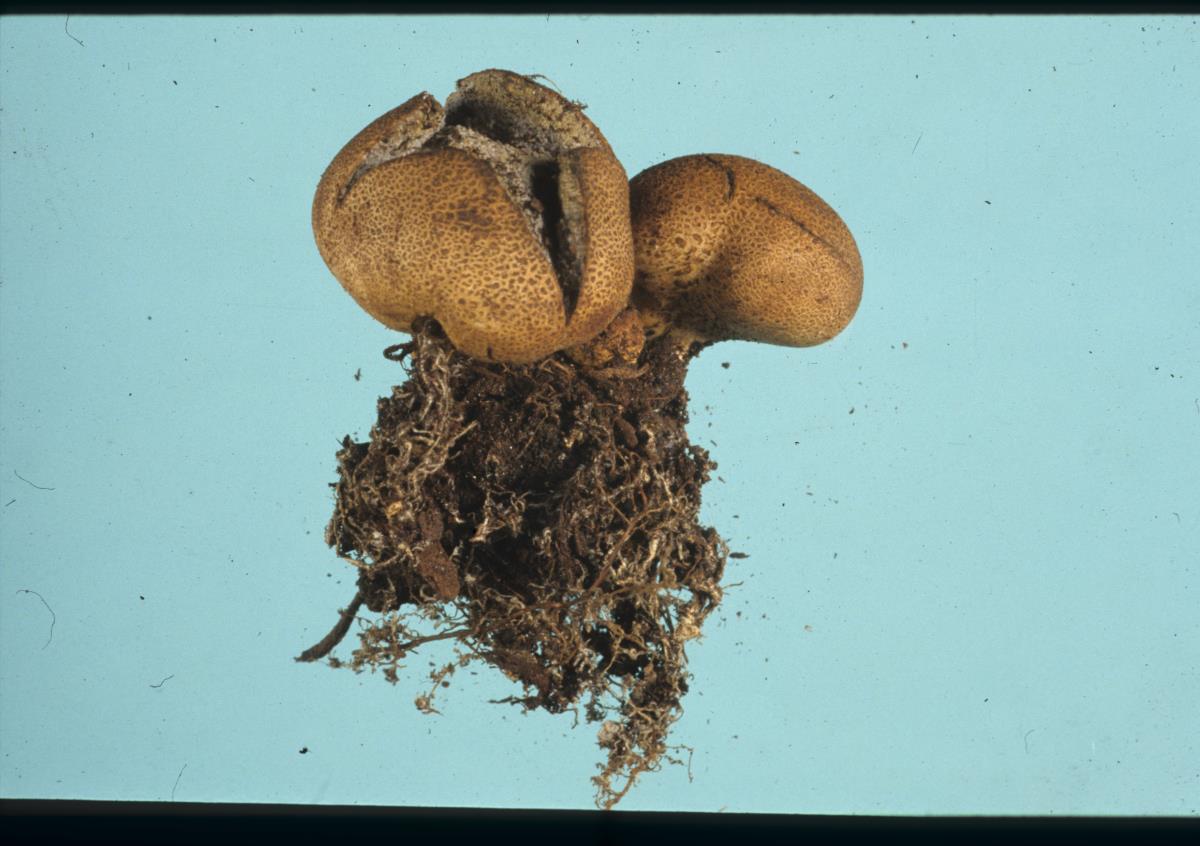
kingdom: Fungi
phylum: Basidiomycota
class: Agaricomycetes
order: Boletales
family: Sclerodermataceae
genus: Scleroderma
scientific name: Scleroderma cepa
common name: Onion earthball
